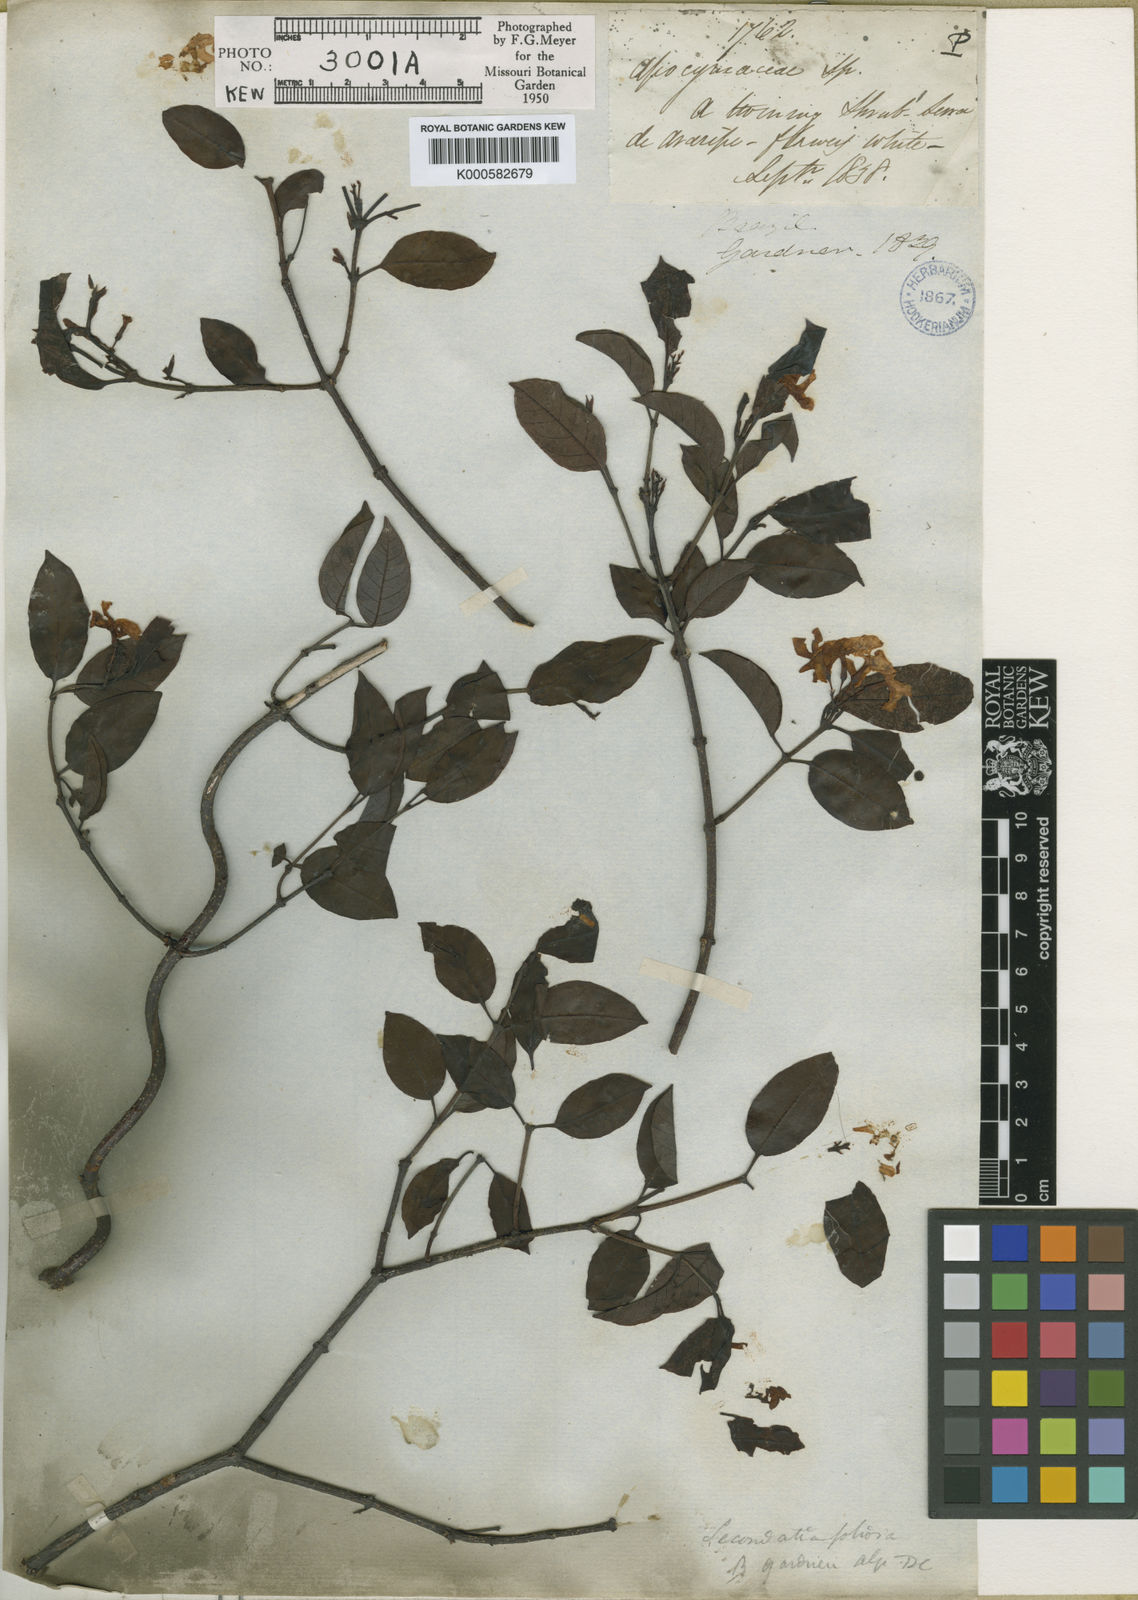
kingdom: Plantae
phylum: Tracheophyta
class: Magnoliopsida
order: Gentianales
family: Apocynaceae
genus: Secondatia
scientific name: Secondatia floribunda
